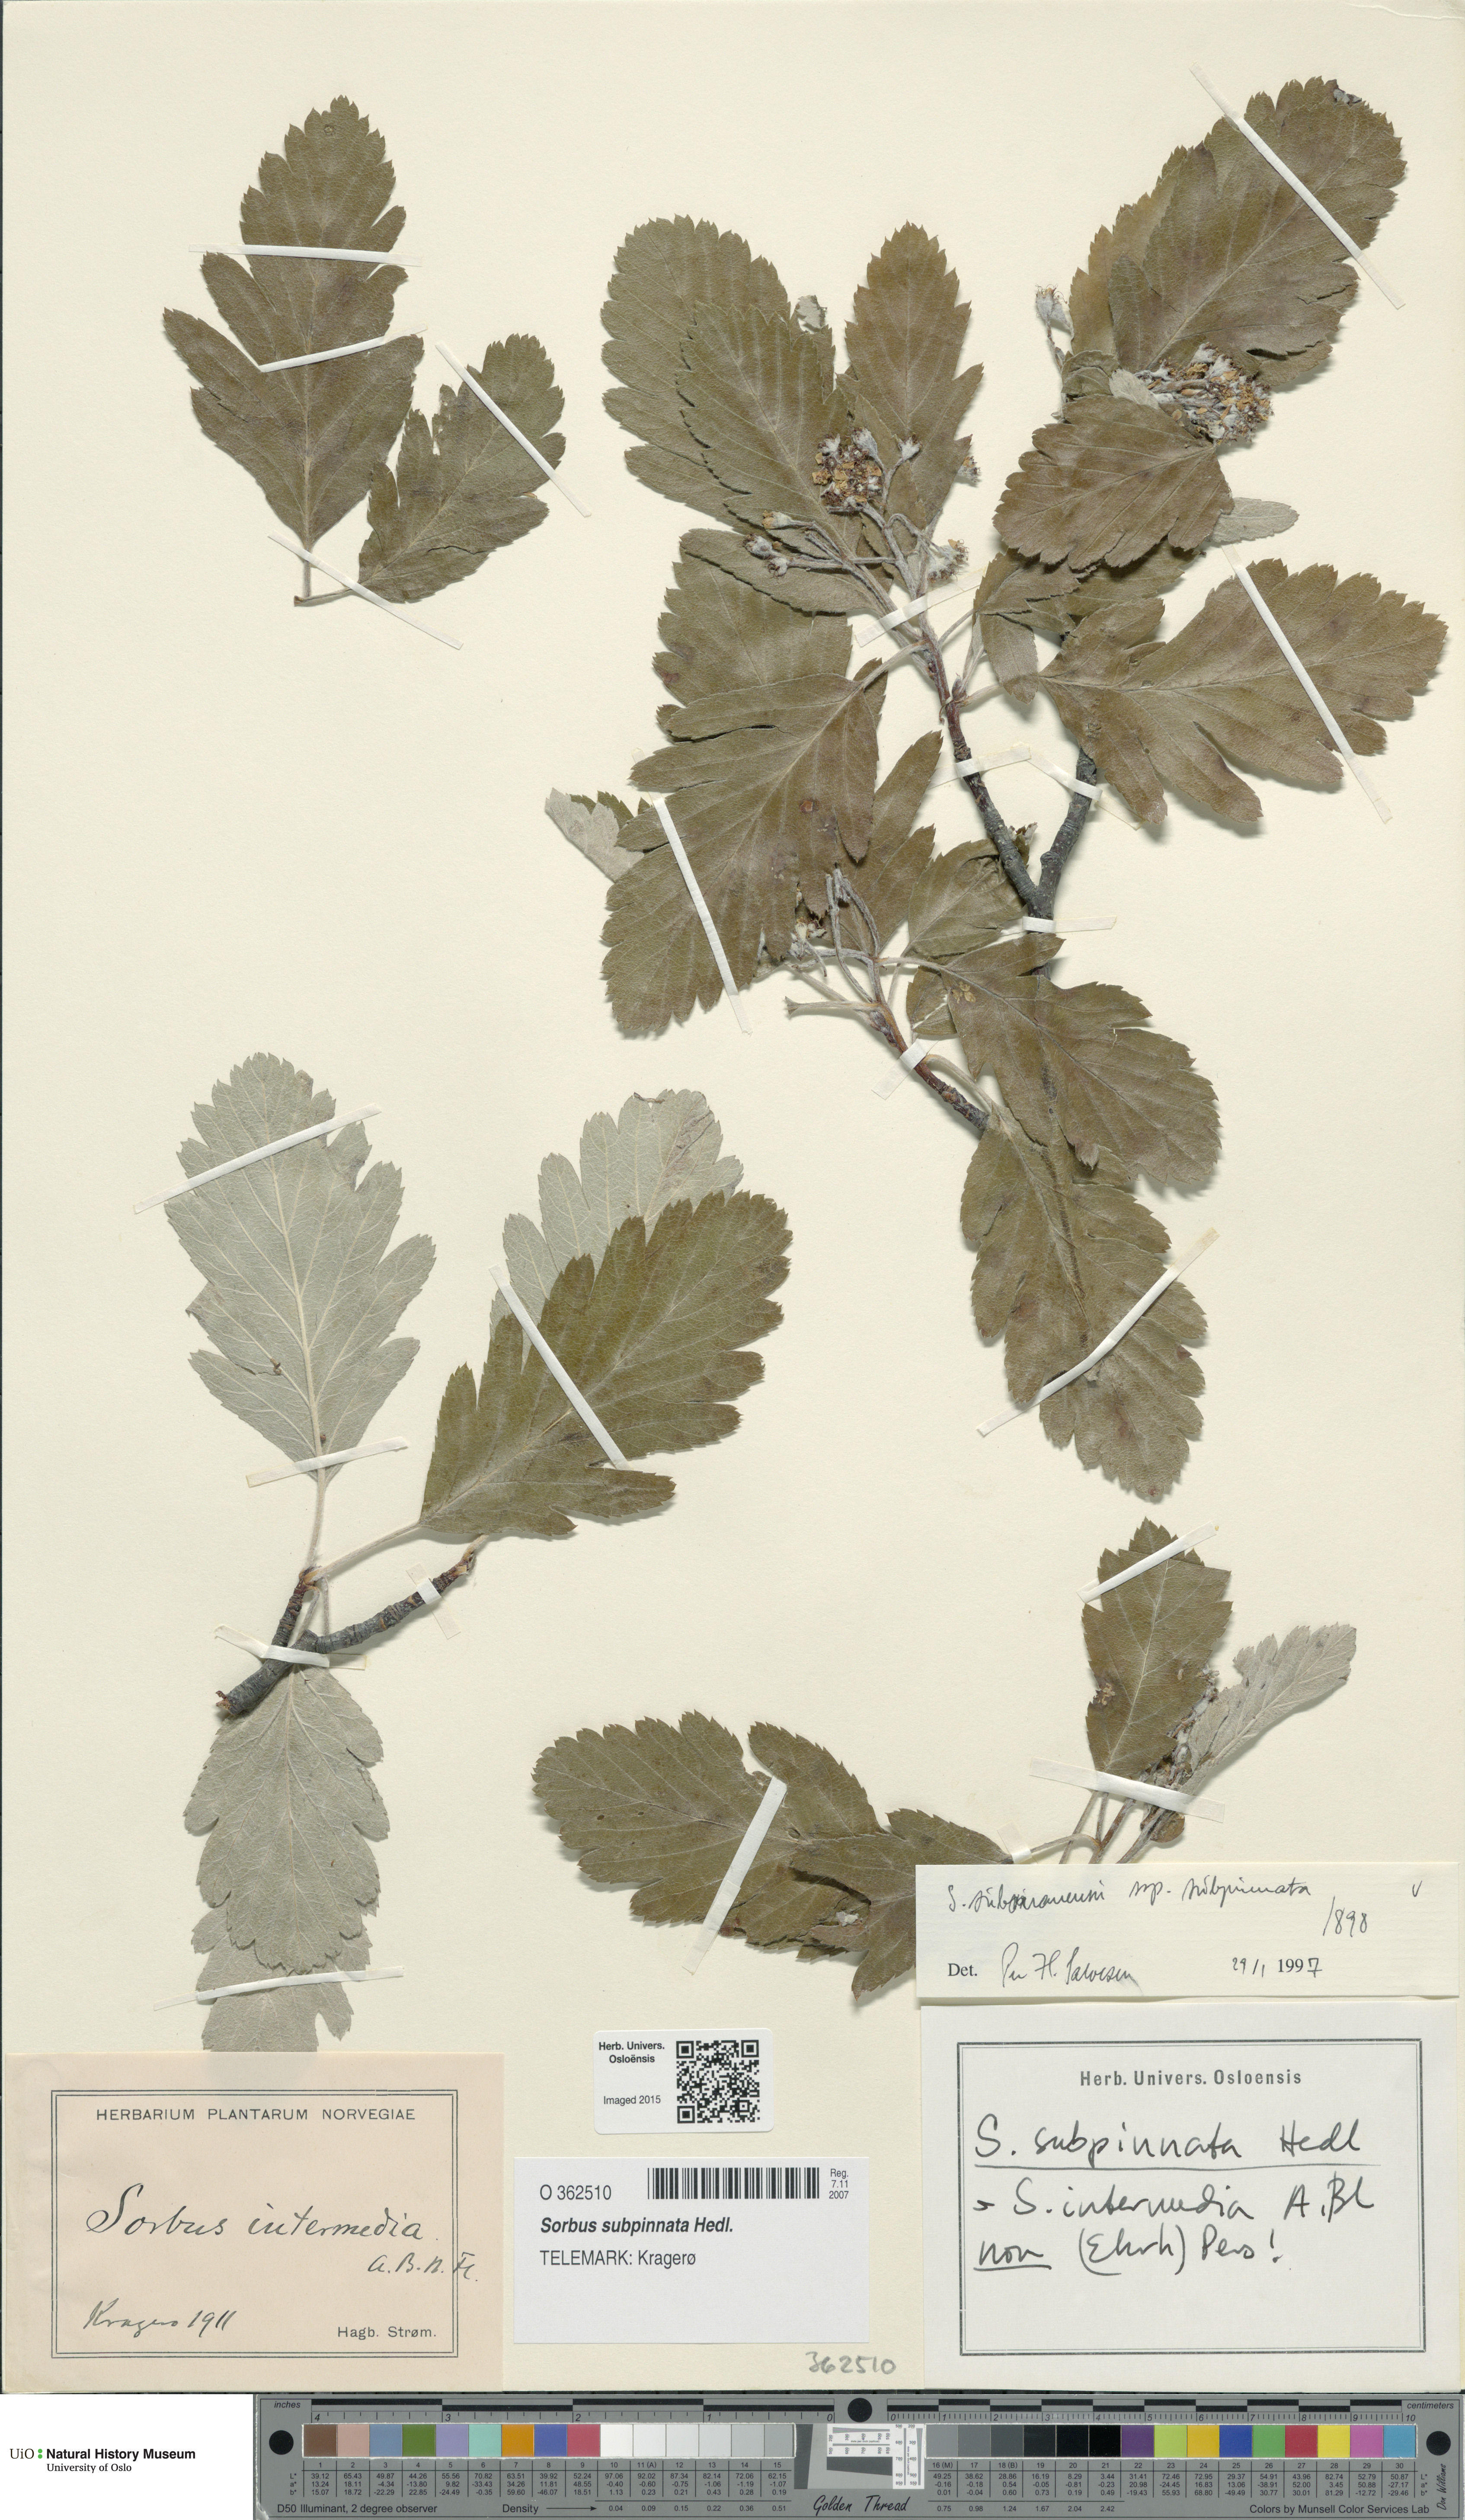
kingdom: Plantae
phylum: Tracheophyta
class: Magnoliopsida
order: Rosales
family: Rosaceae
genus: Hedlundia
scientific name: Hedlundia subpinnata
